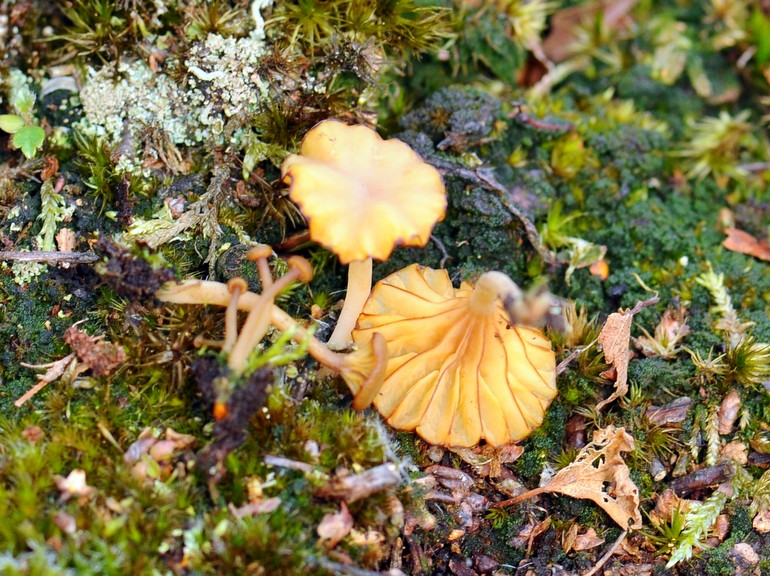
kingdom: Fungi
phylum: Basidiomycota
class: Agaricomycetes
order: Agaricales
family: Hygrophoraceae
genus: Lichenomphalia
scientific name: Lichenomphalia umbellifera
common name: tørve-lavhat
